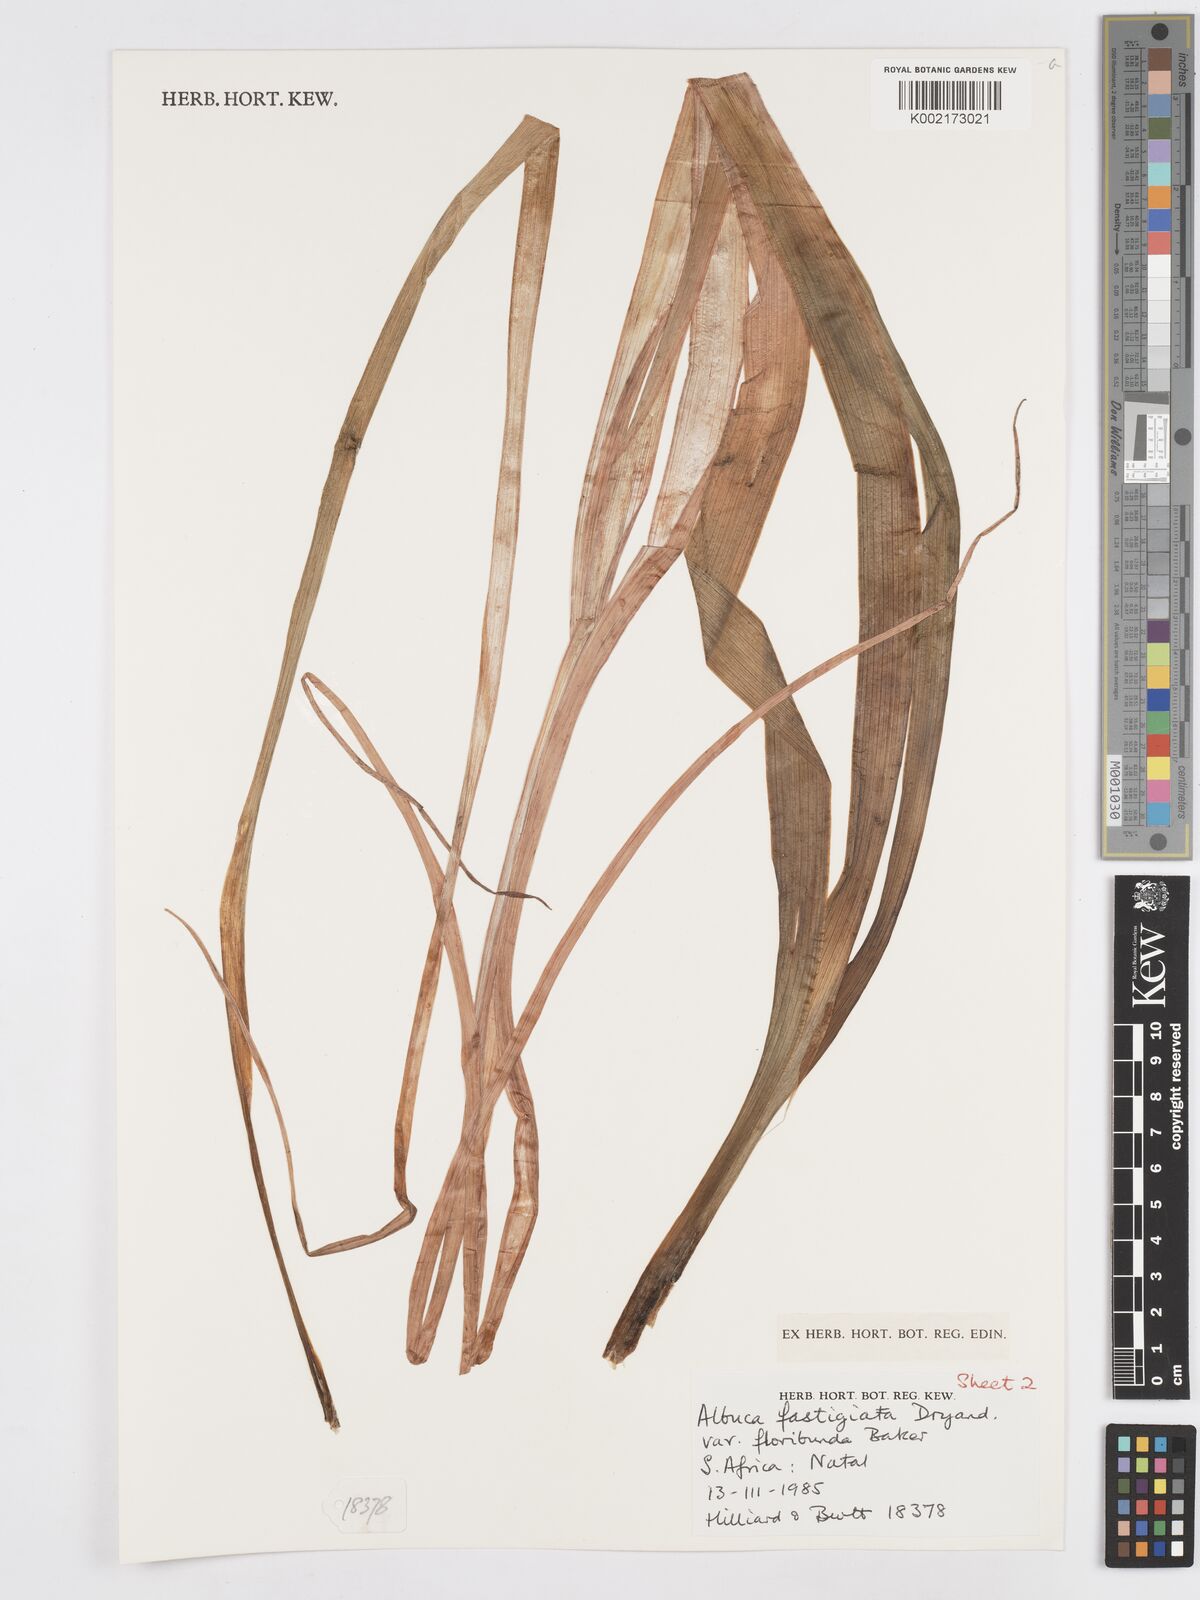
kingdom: Plantae
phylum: Tracheophyta
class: Liliopsida
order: Asparagales
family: Asparagaceae
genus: Albuca
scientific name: Albuca tortuosa
